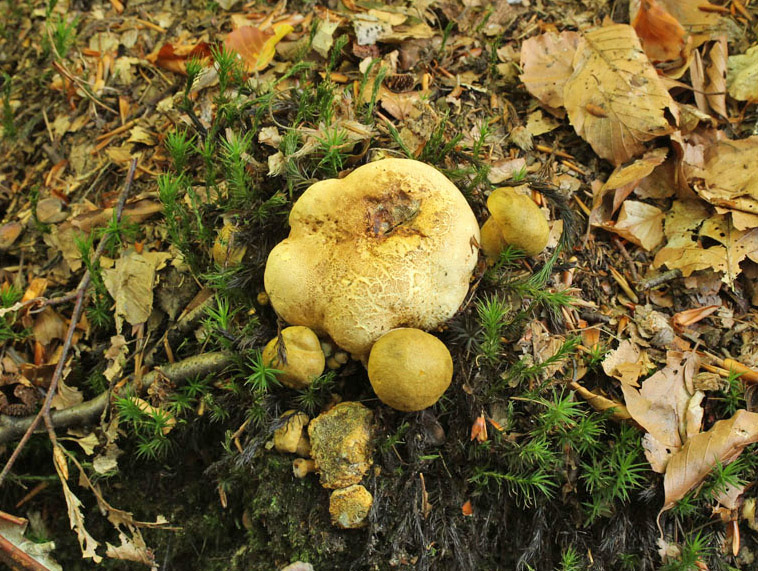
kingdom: Fungi
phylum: Basidiomycota
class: Agaricomycetes
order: Boletales
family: Boletaceae
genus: Pseudoboletus
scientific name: Pseudoboletus parasiticus
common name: snyltende rørhat
